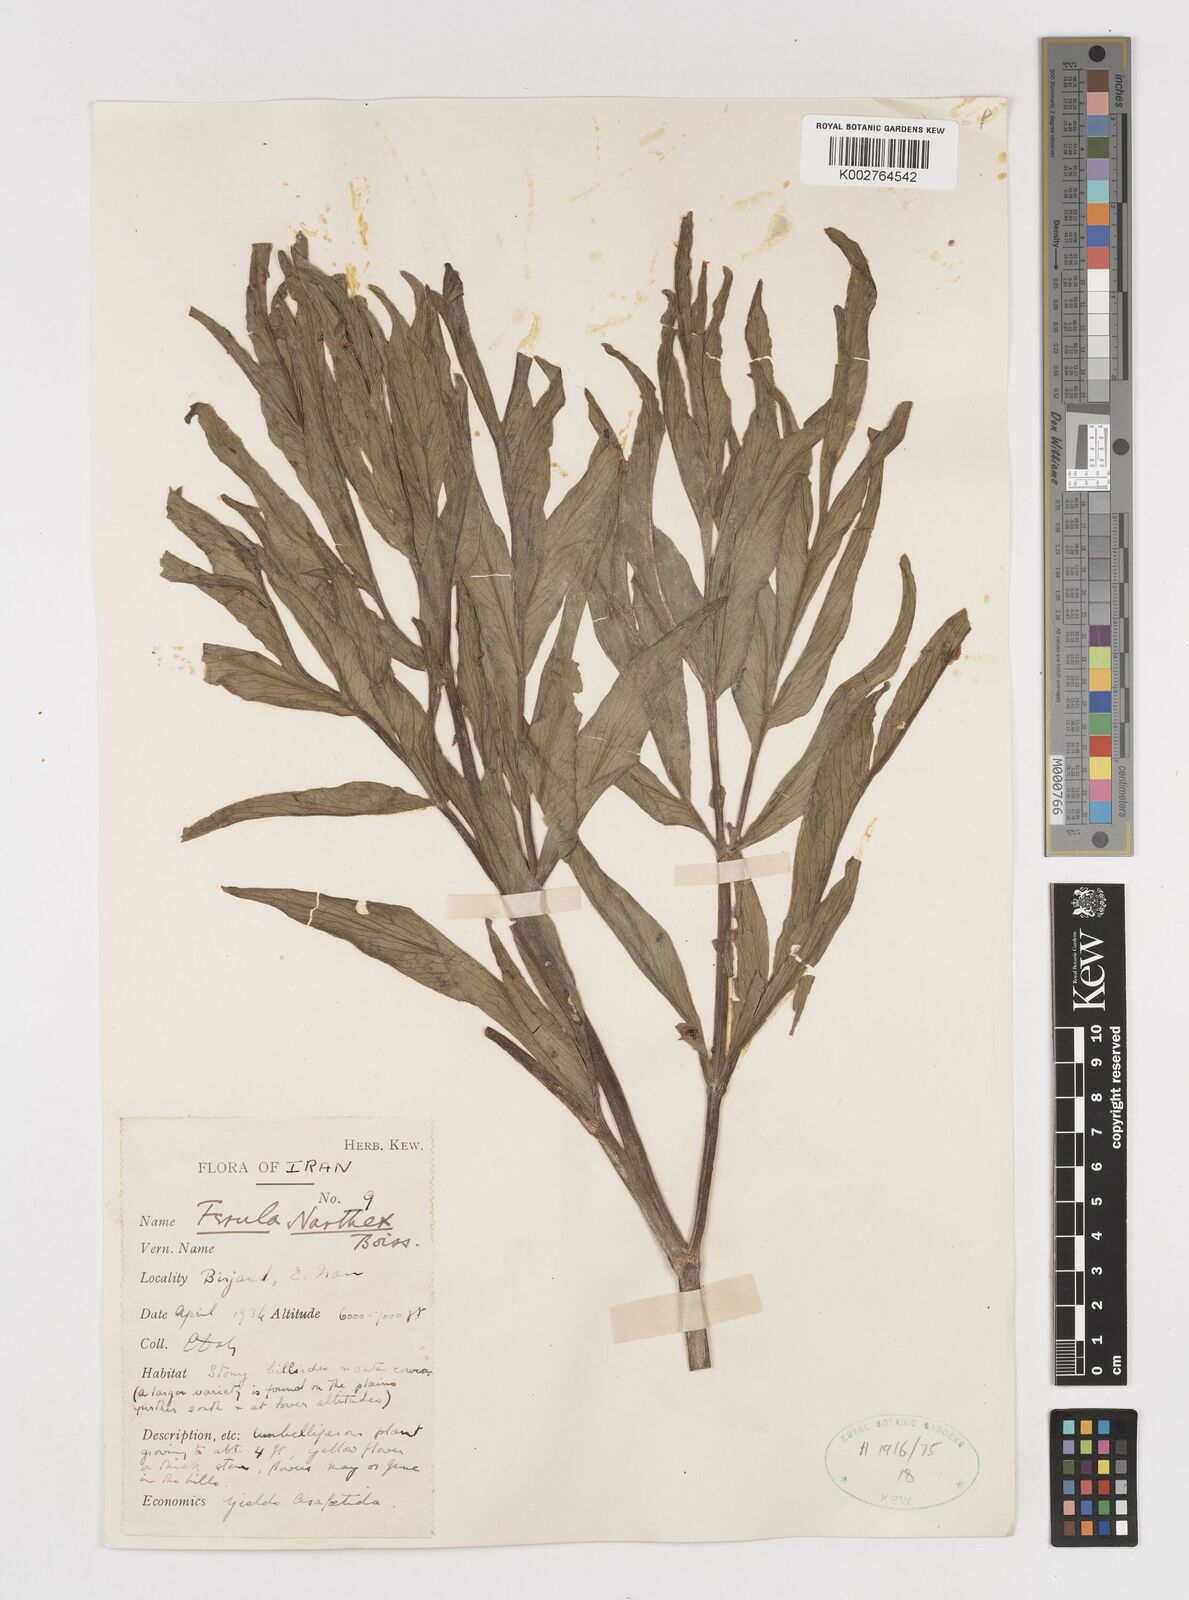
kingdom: Plantae
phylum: Tracheophyta
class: Magnoliopsida
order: Apiales
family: Apiaceae
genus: Ferula
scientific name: Ferula narthex
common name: Hing asafetida
